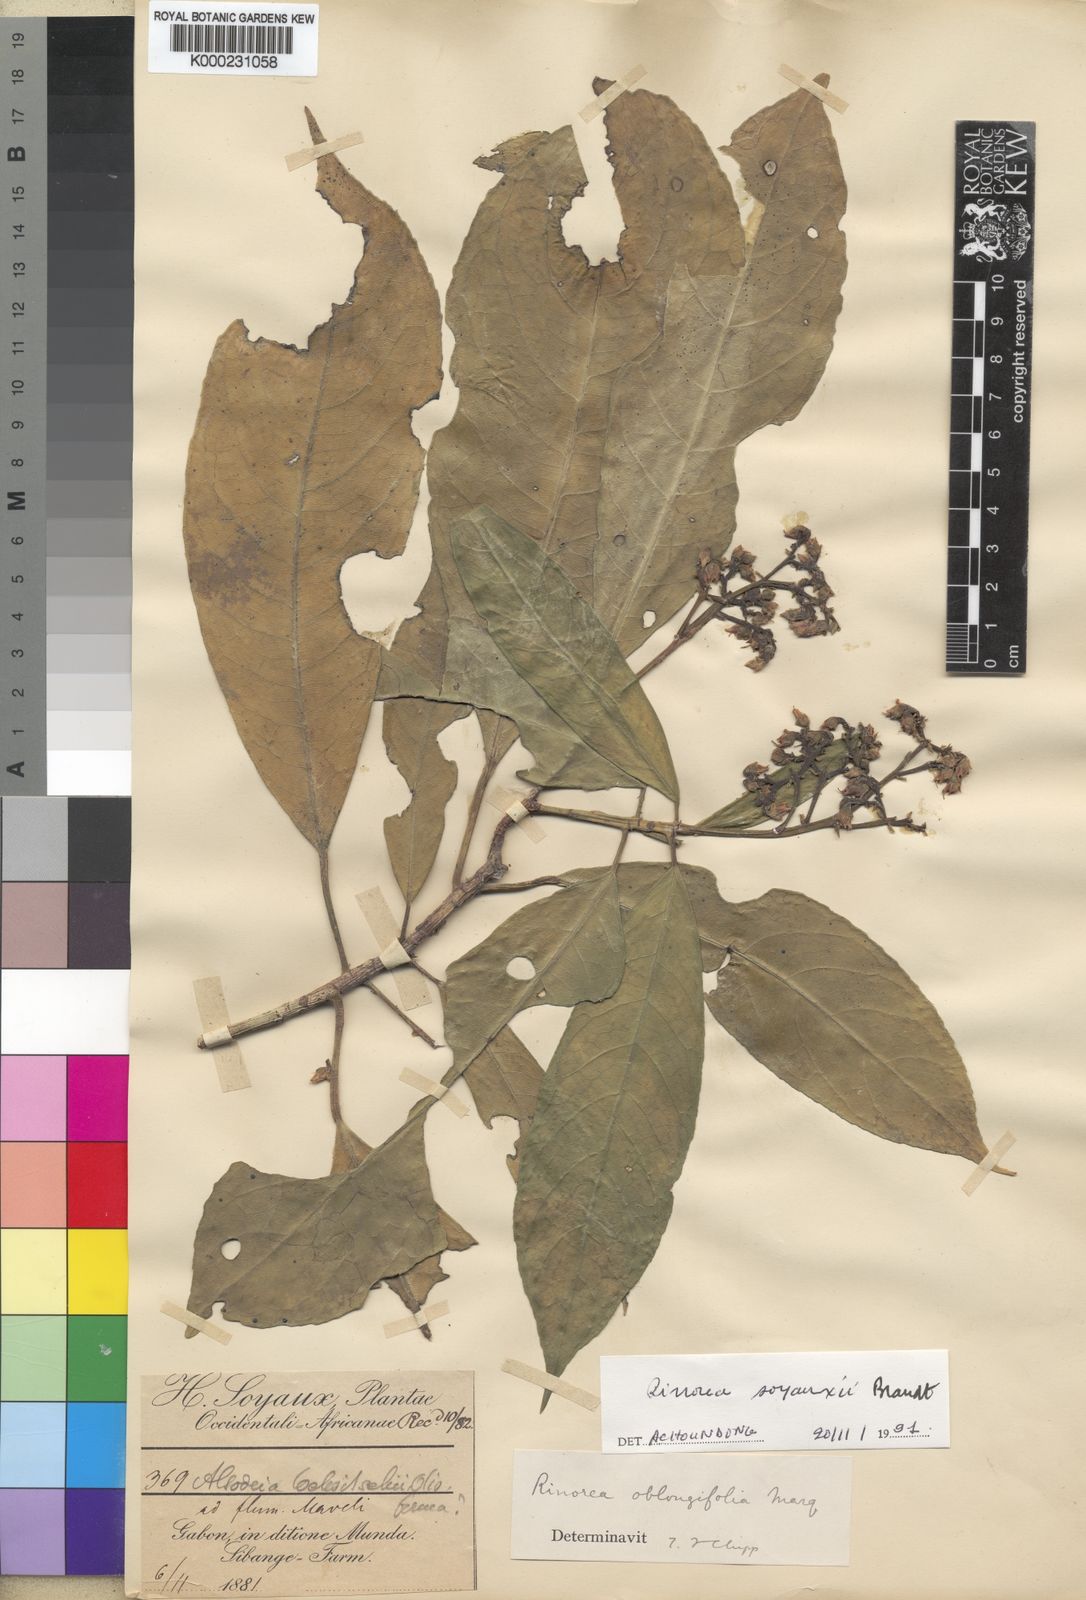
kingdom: Plantae
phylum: Tracheophyta
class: Magnoliopsida
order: Malpighiales
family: Violaceae
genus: Rinorea
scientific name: Rinorea soyauxii
